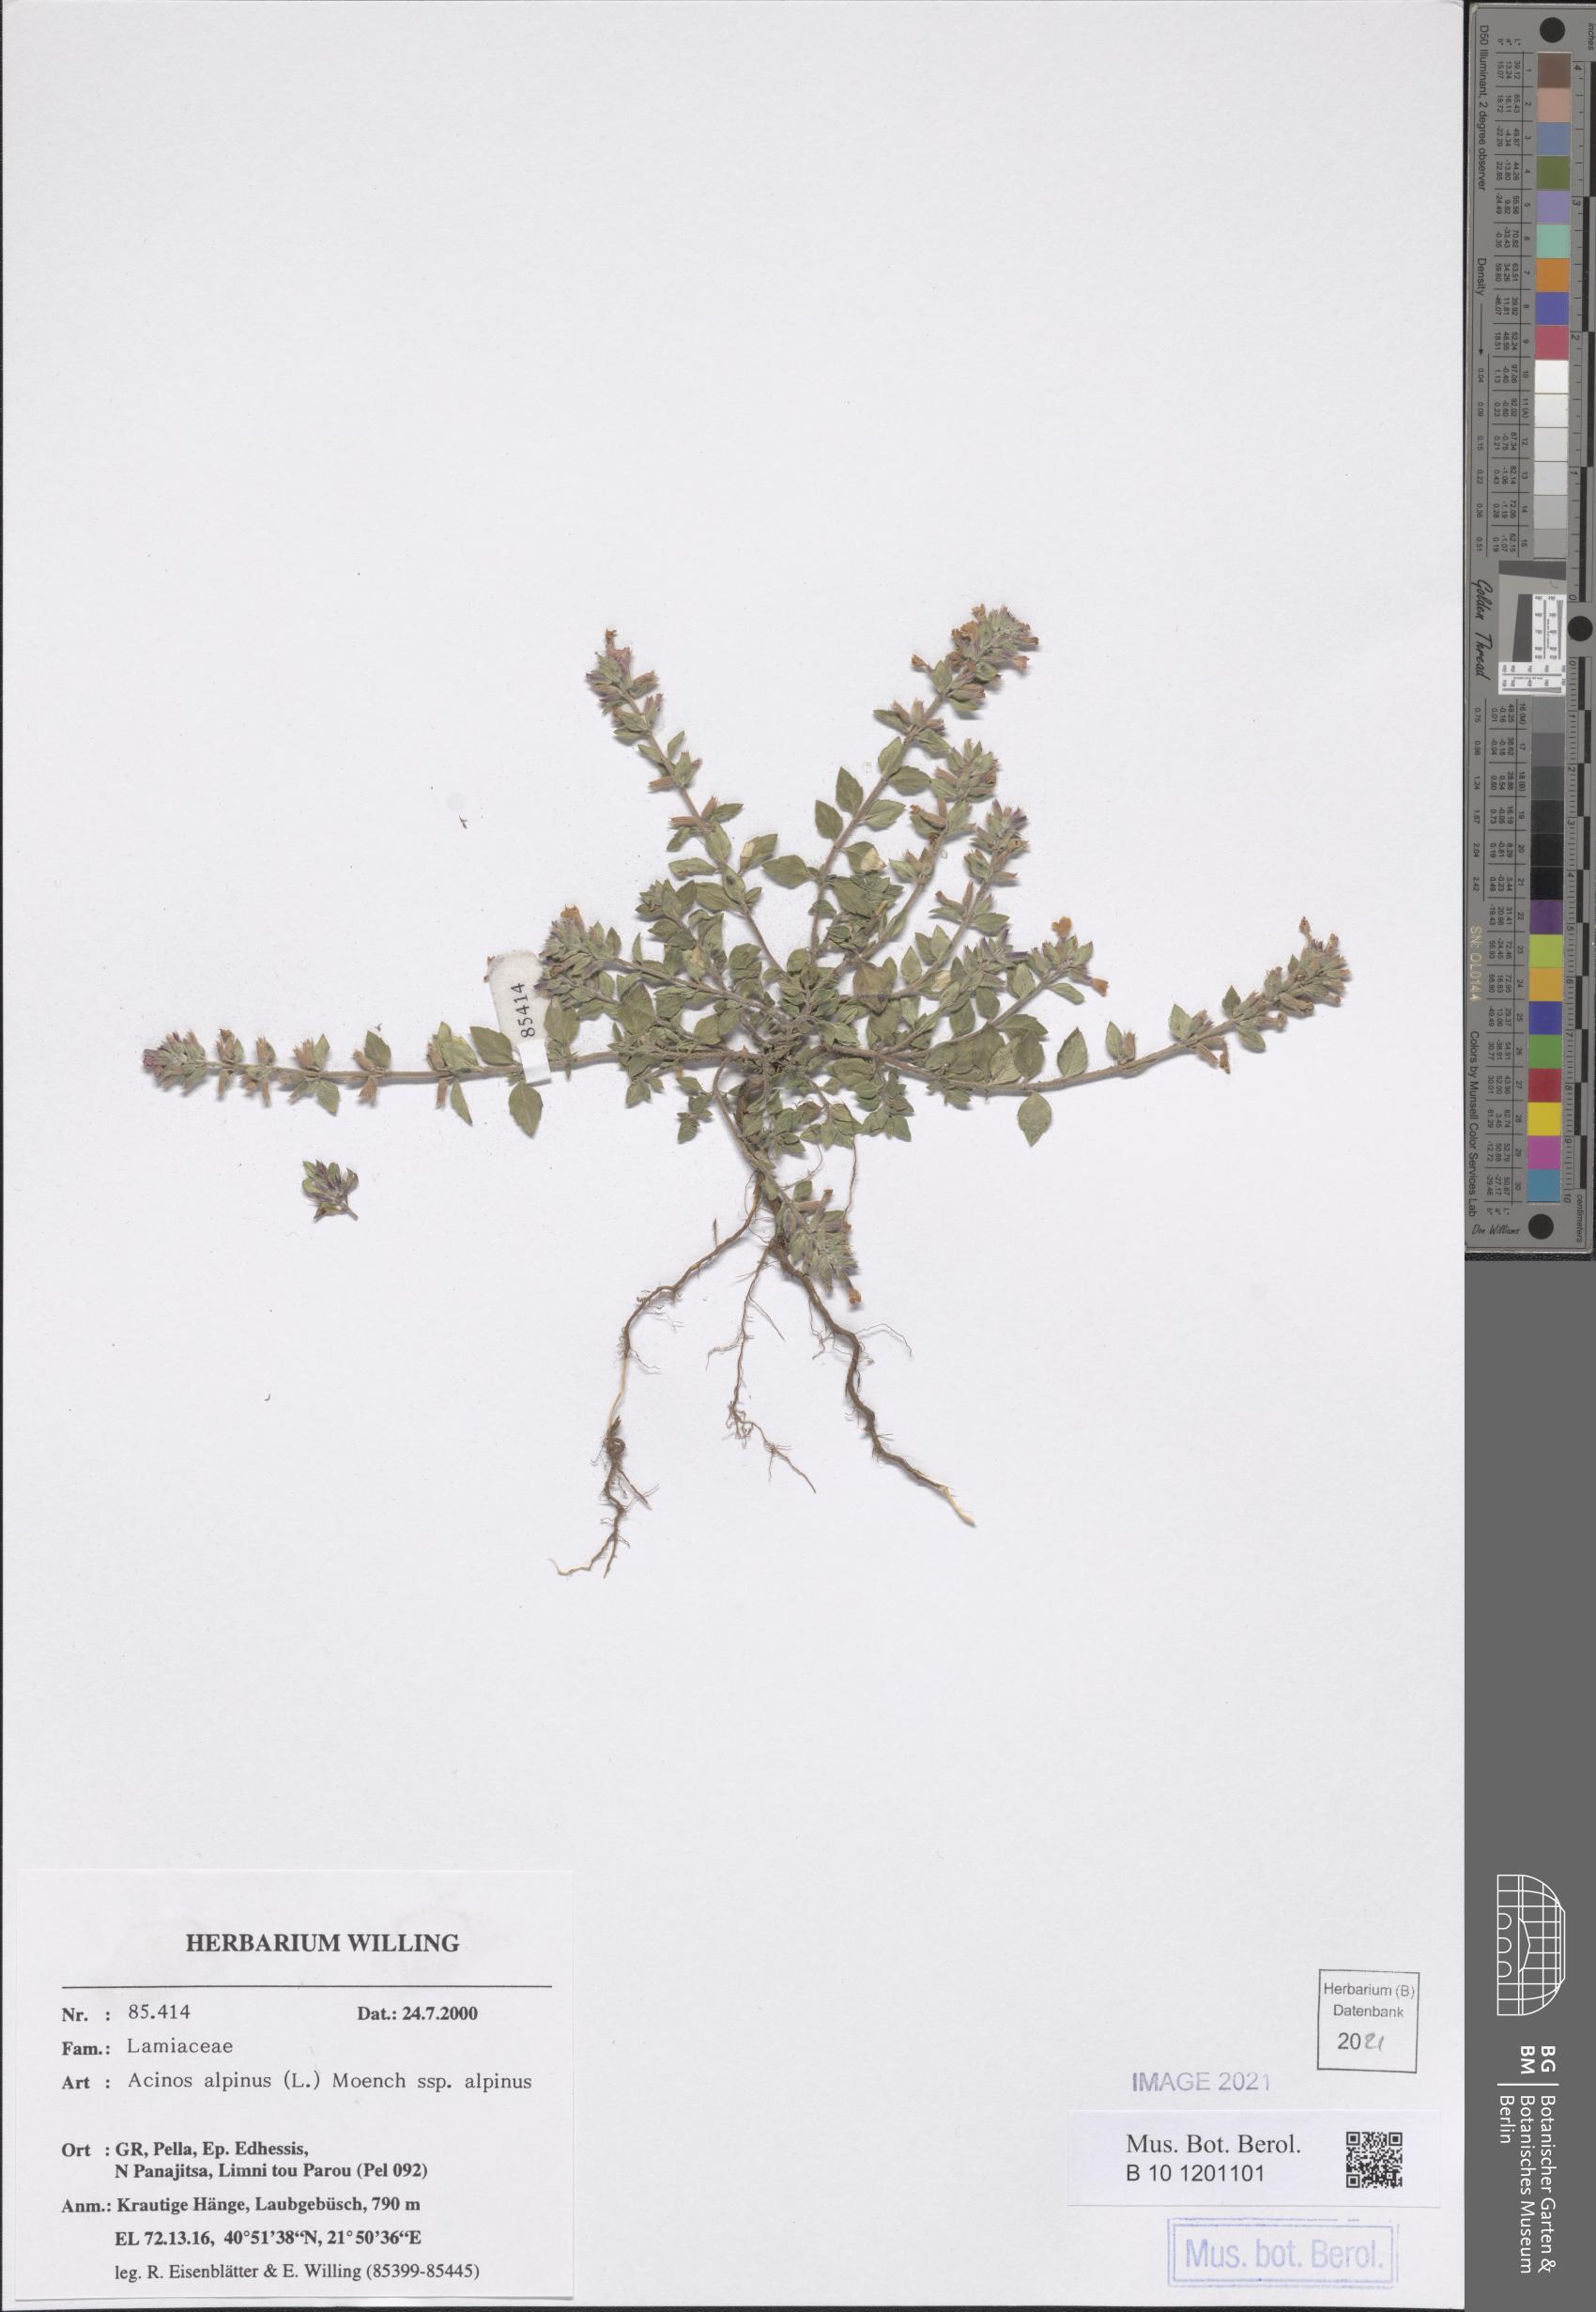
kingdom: Plantae
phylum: Tracheophyta
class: Magnoliopsida
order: Lamiales
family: Lamiaceae
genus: Clinopodium
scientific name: Clinopodium alpinum
